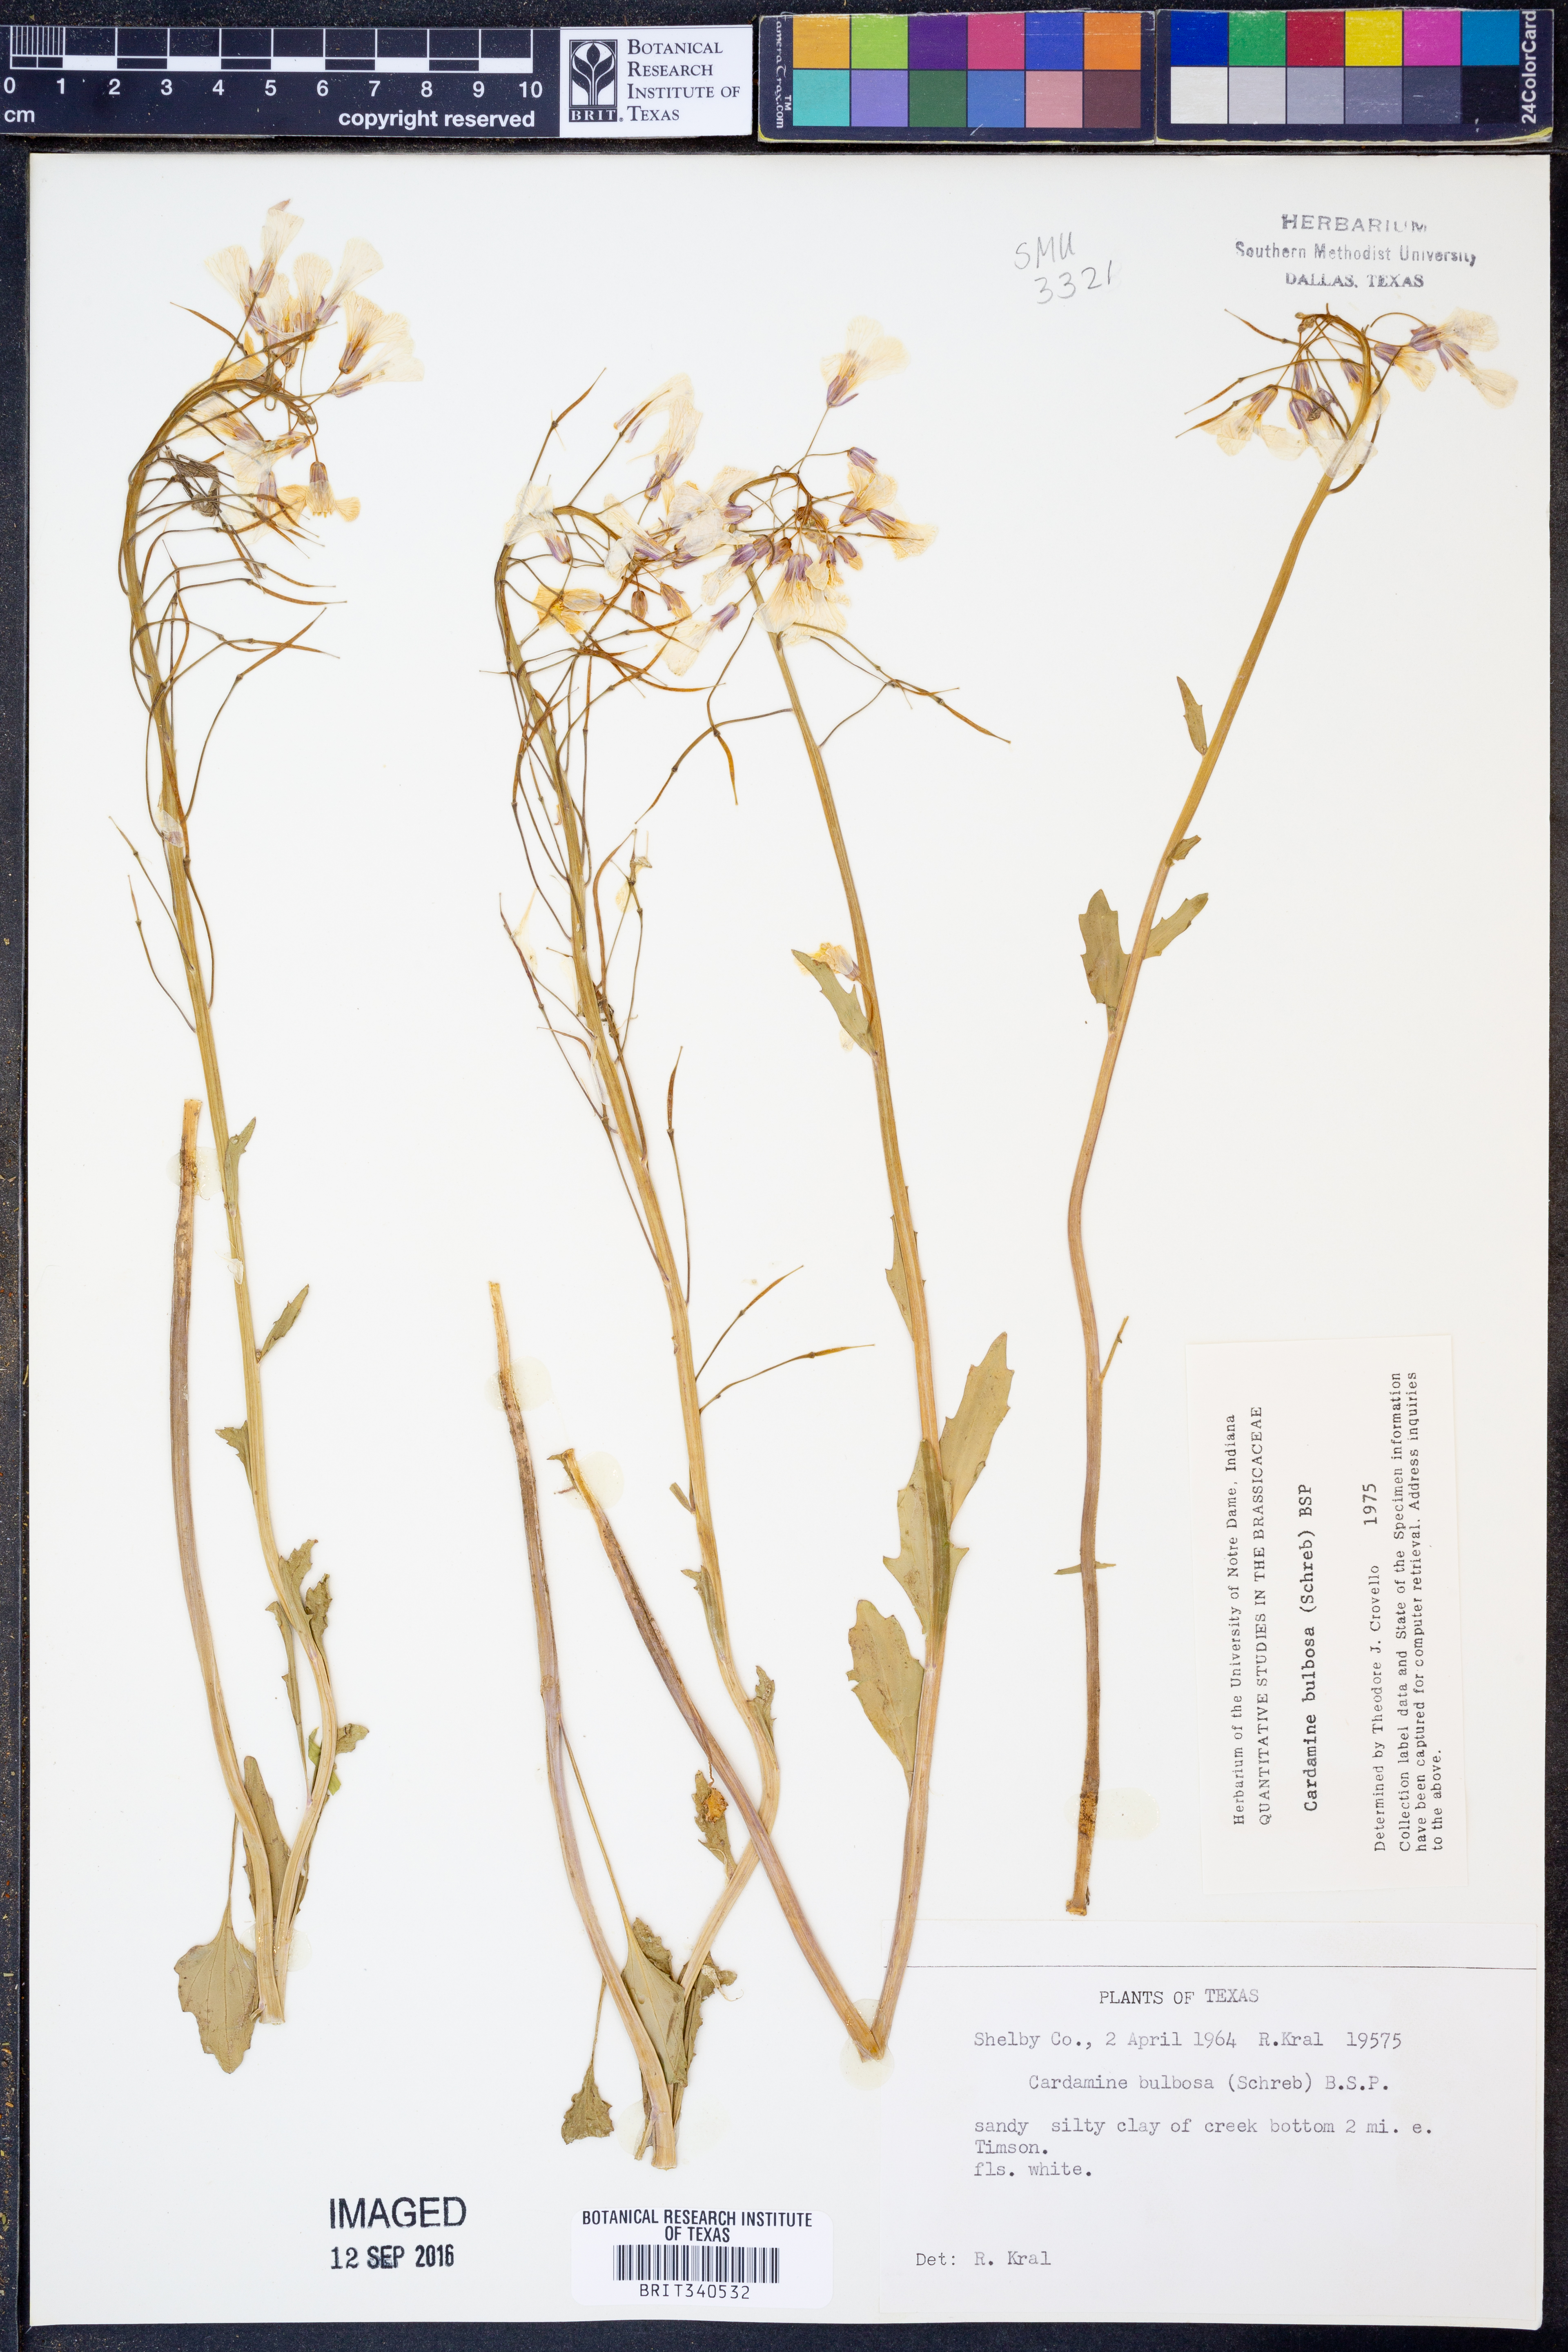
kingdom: Plantae
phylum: Tracheophyta
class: Magnoliopsida
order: Brassicales
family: Brassicaceae
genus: Cardamine
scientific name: Cardamine bulbosa
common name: Spring cress
